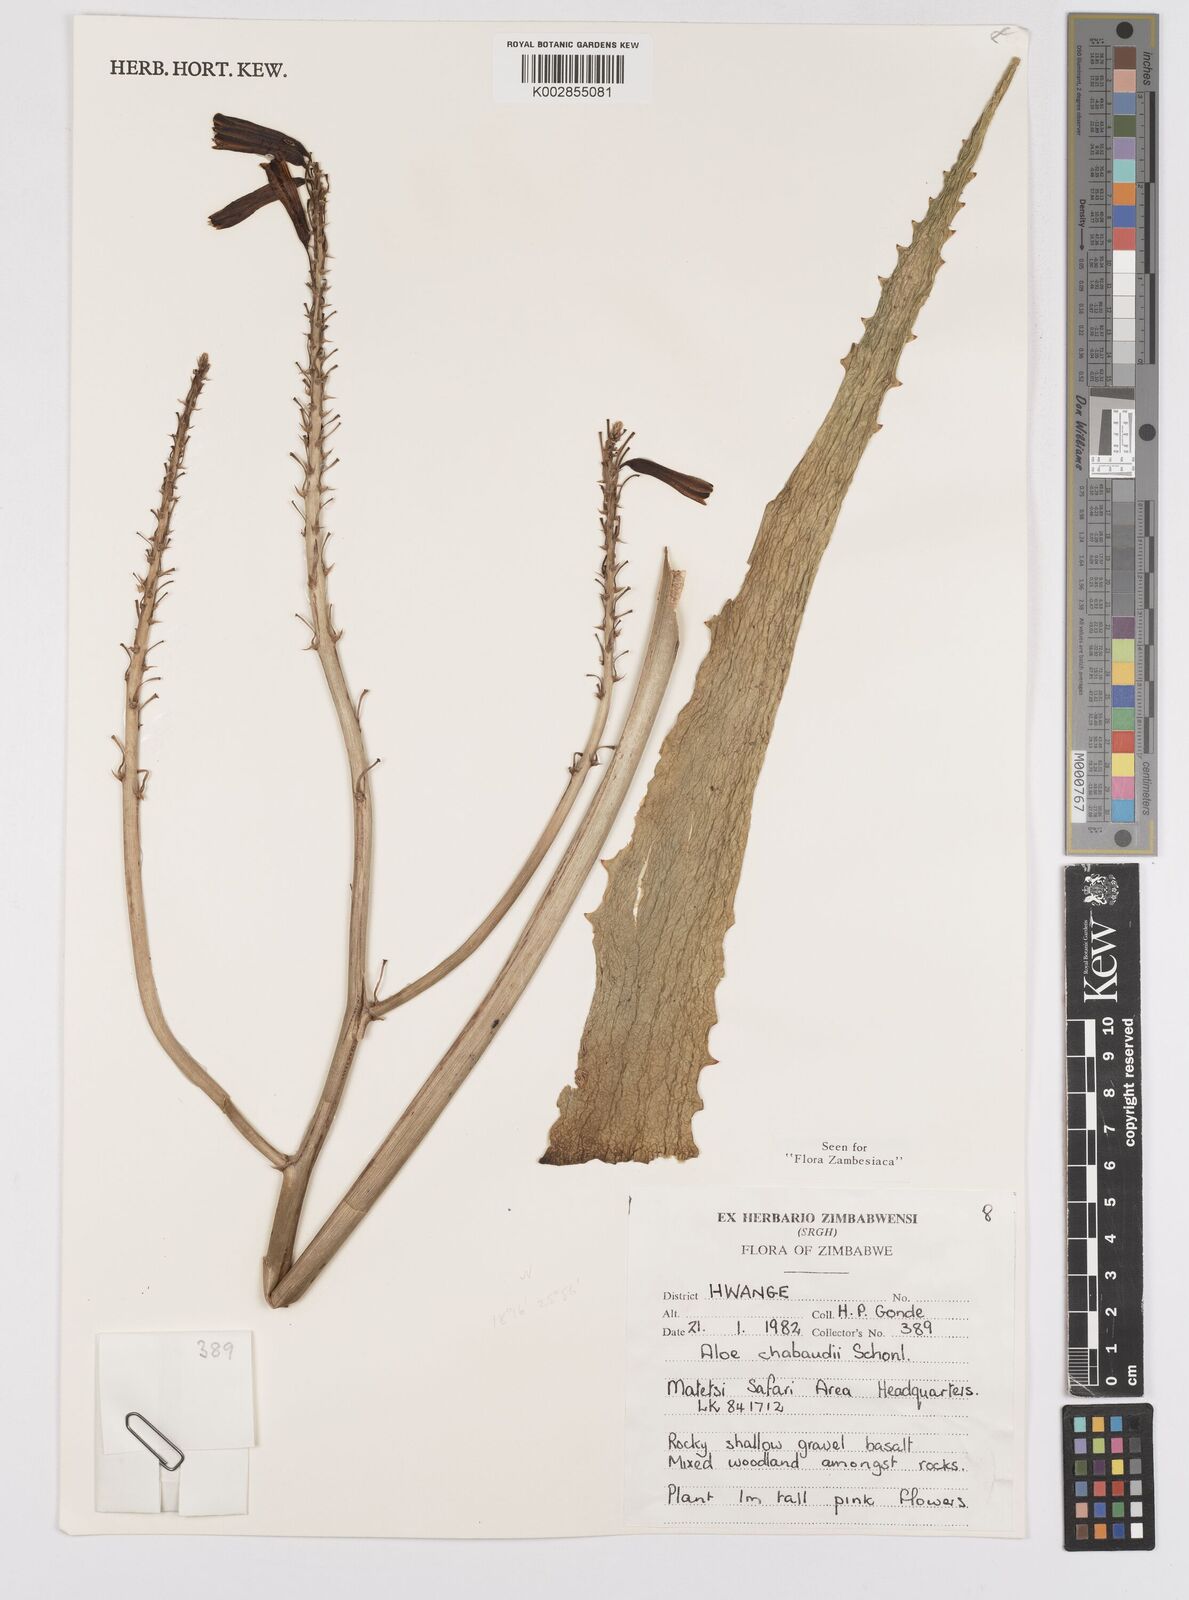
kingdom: Plantae
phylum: Tracheophyta
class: Liliopsida
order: Asparagales
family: Asphodelaceae
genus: Aloe
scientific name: Aloe chabaudii
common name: Chabaud's aloe
